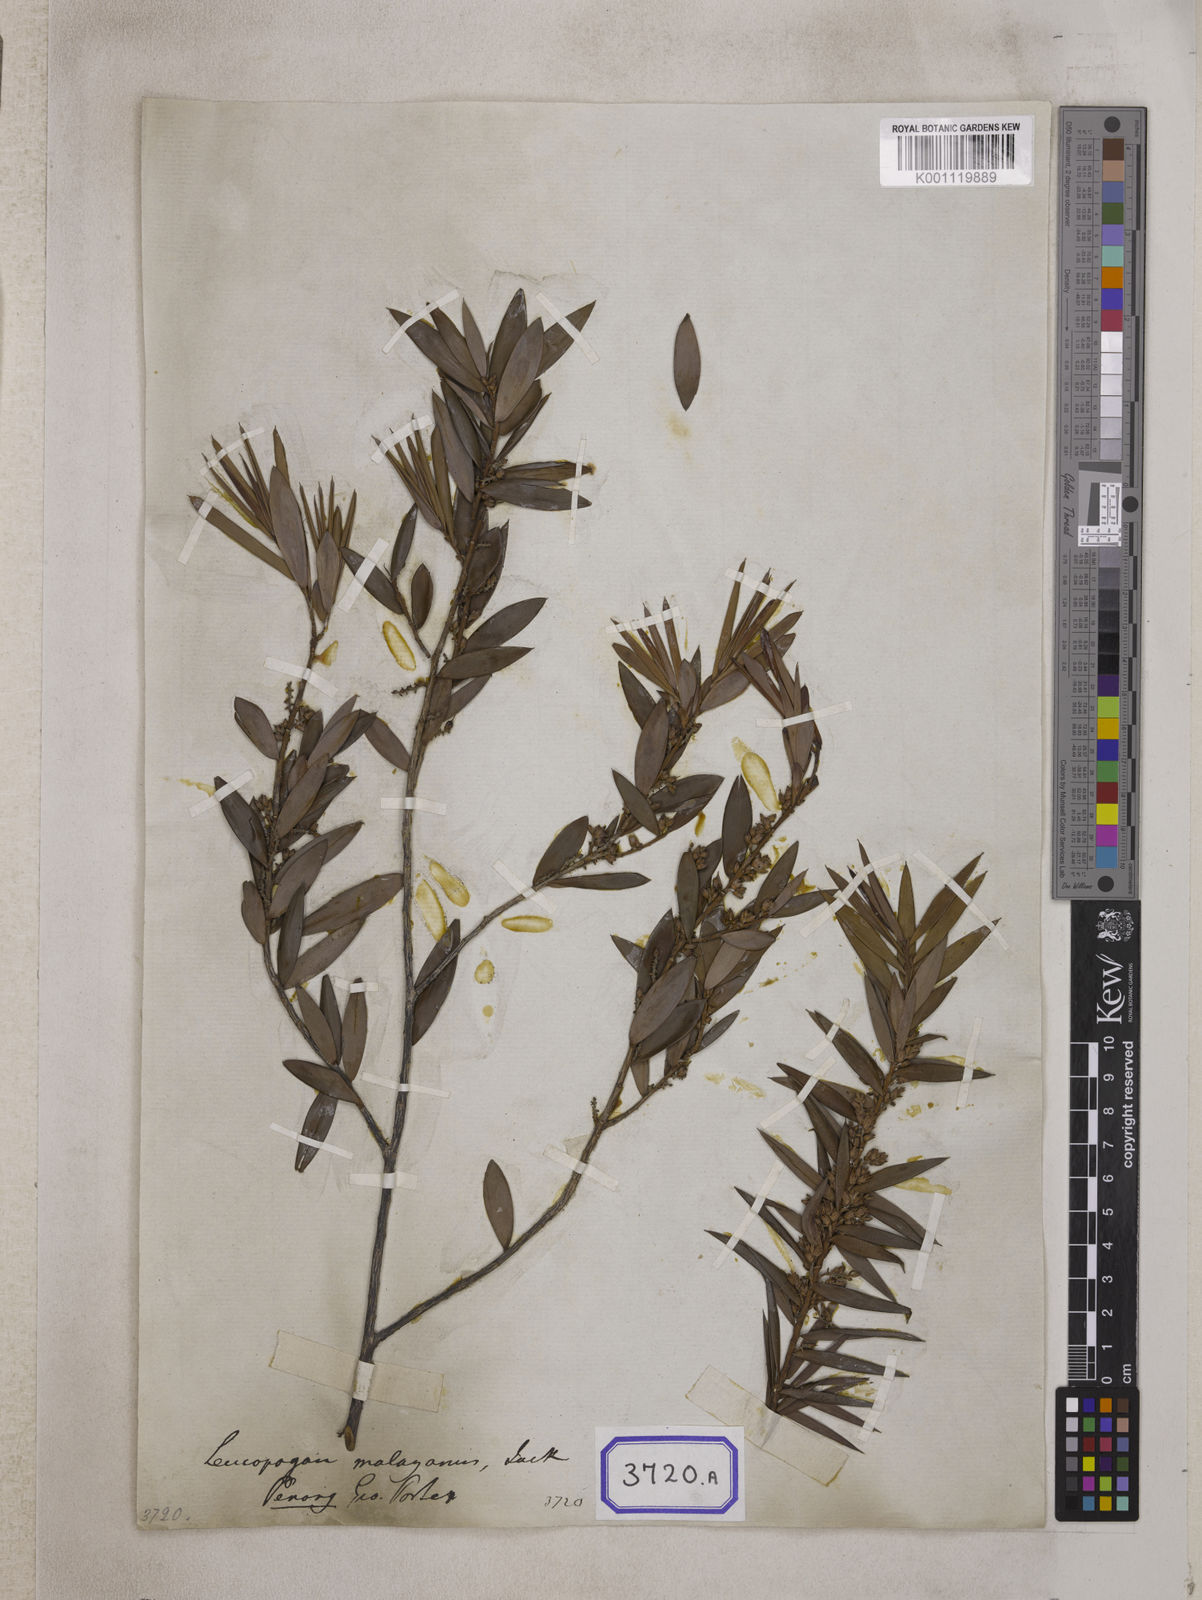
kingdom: Plantae
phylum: Tracheophyta
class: Magnoliopsida
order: Ericales
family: Ericaceae
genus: Styphelia
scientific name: Styphelia malayana
